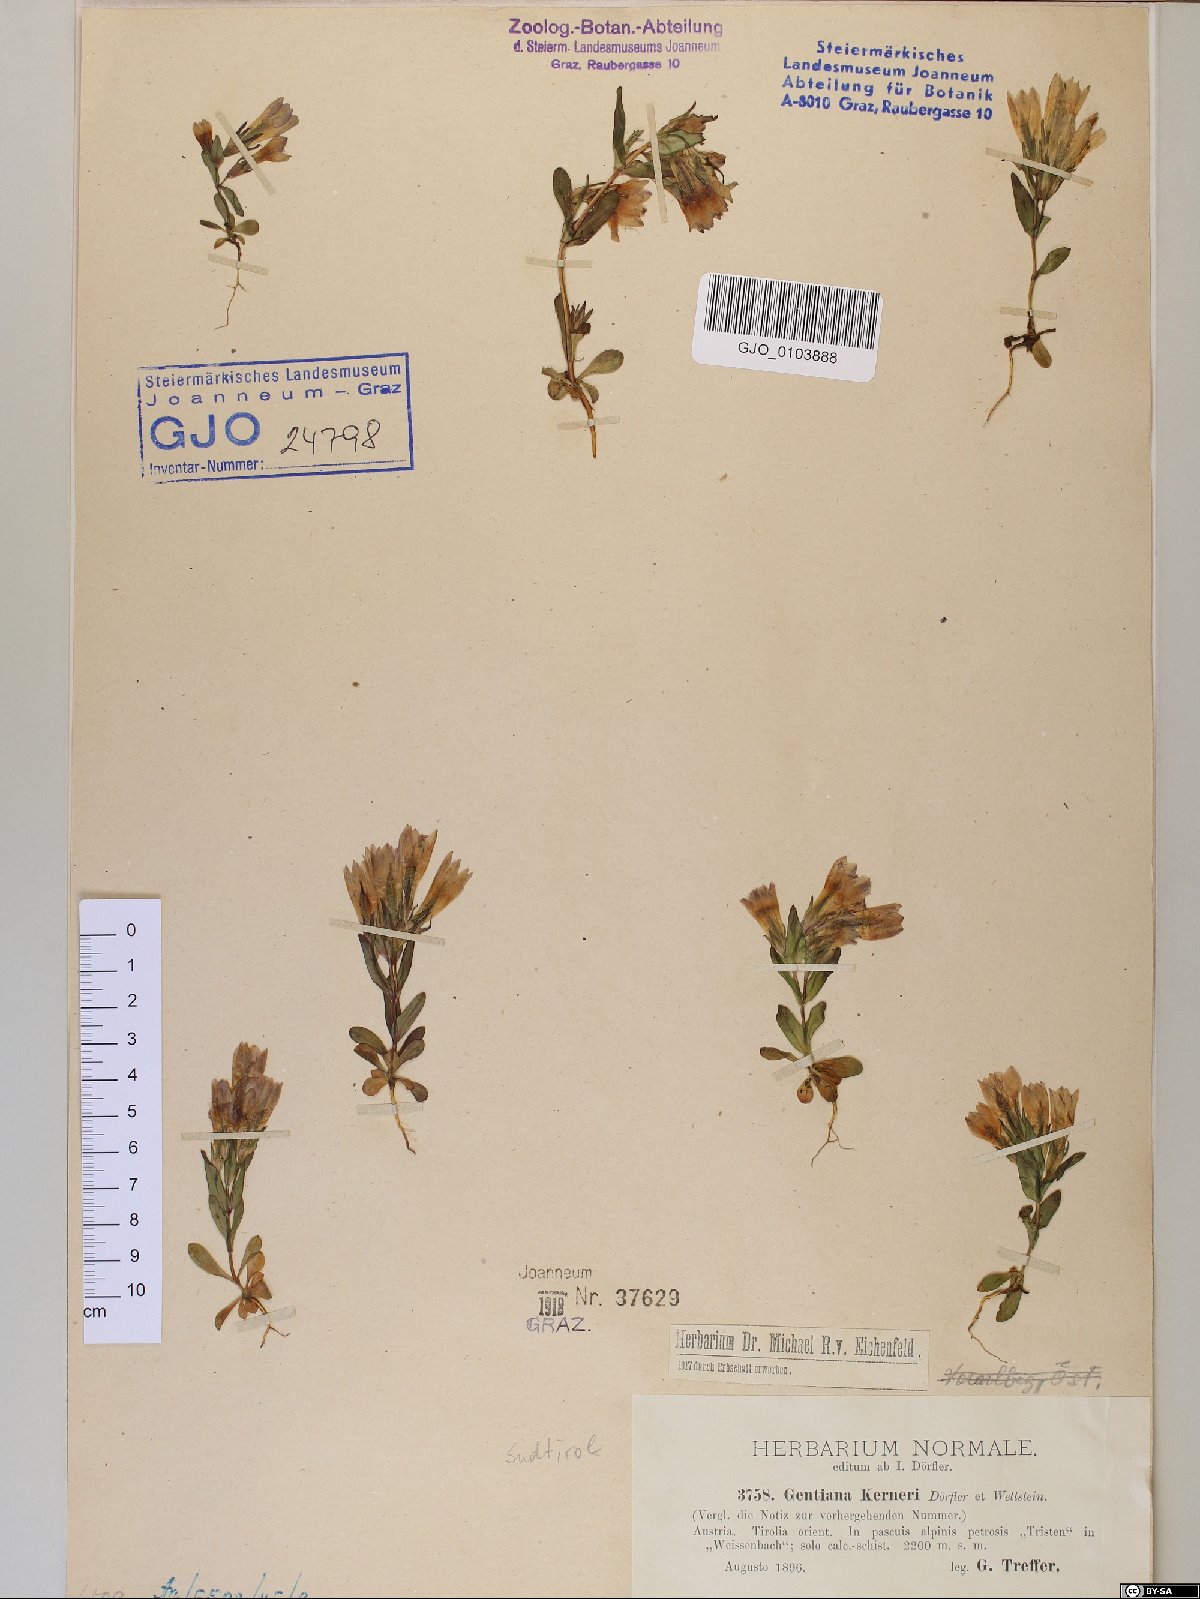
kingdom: Plantae
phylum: Tracheophyta
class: Magnoliopsida
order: Gentianales
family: Gentianaceae
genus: Gentianella
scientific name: Gentianella rhaetica
